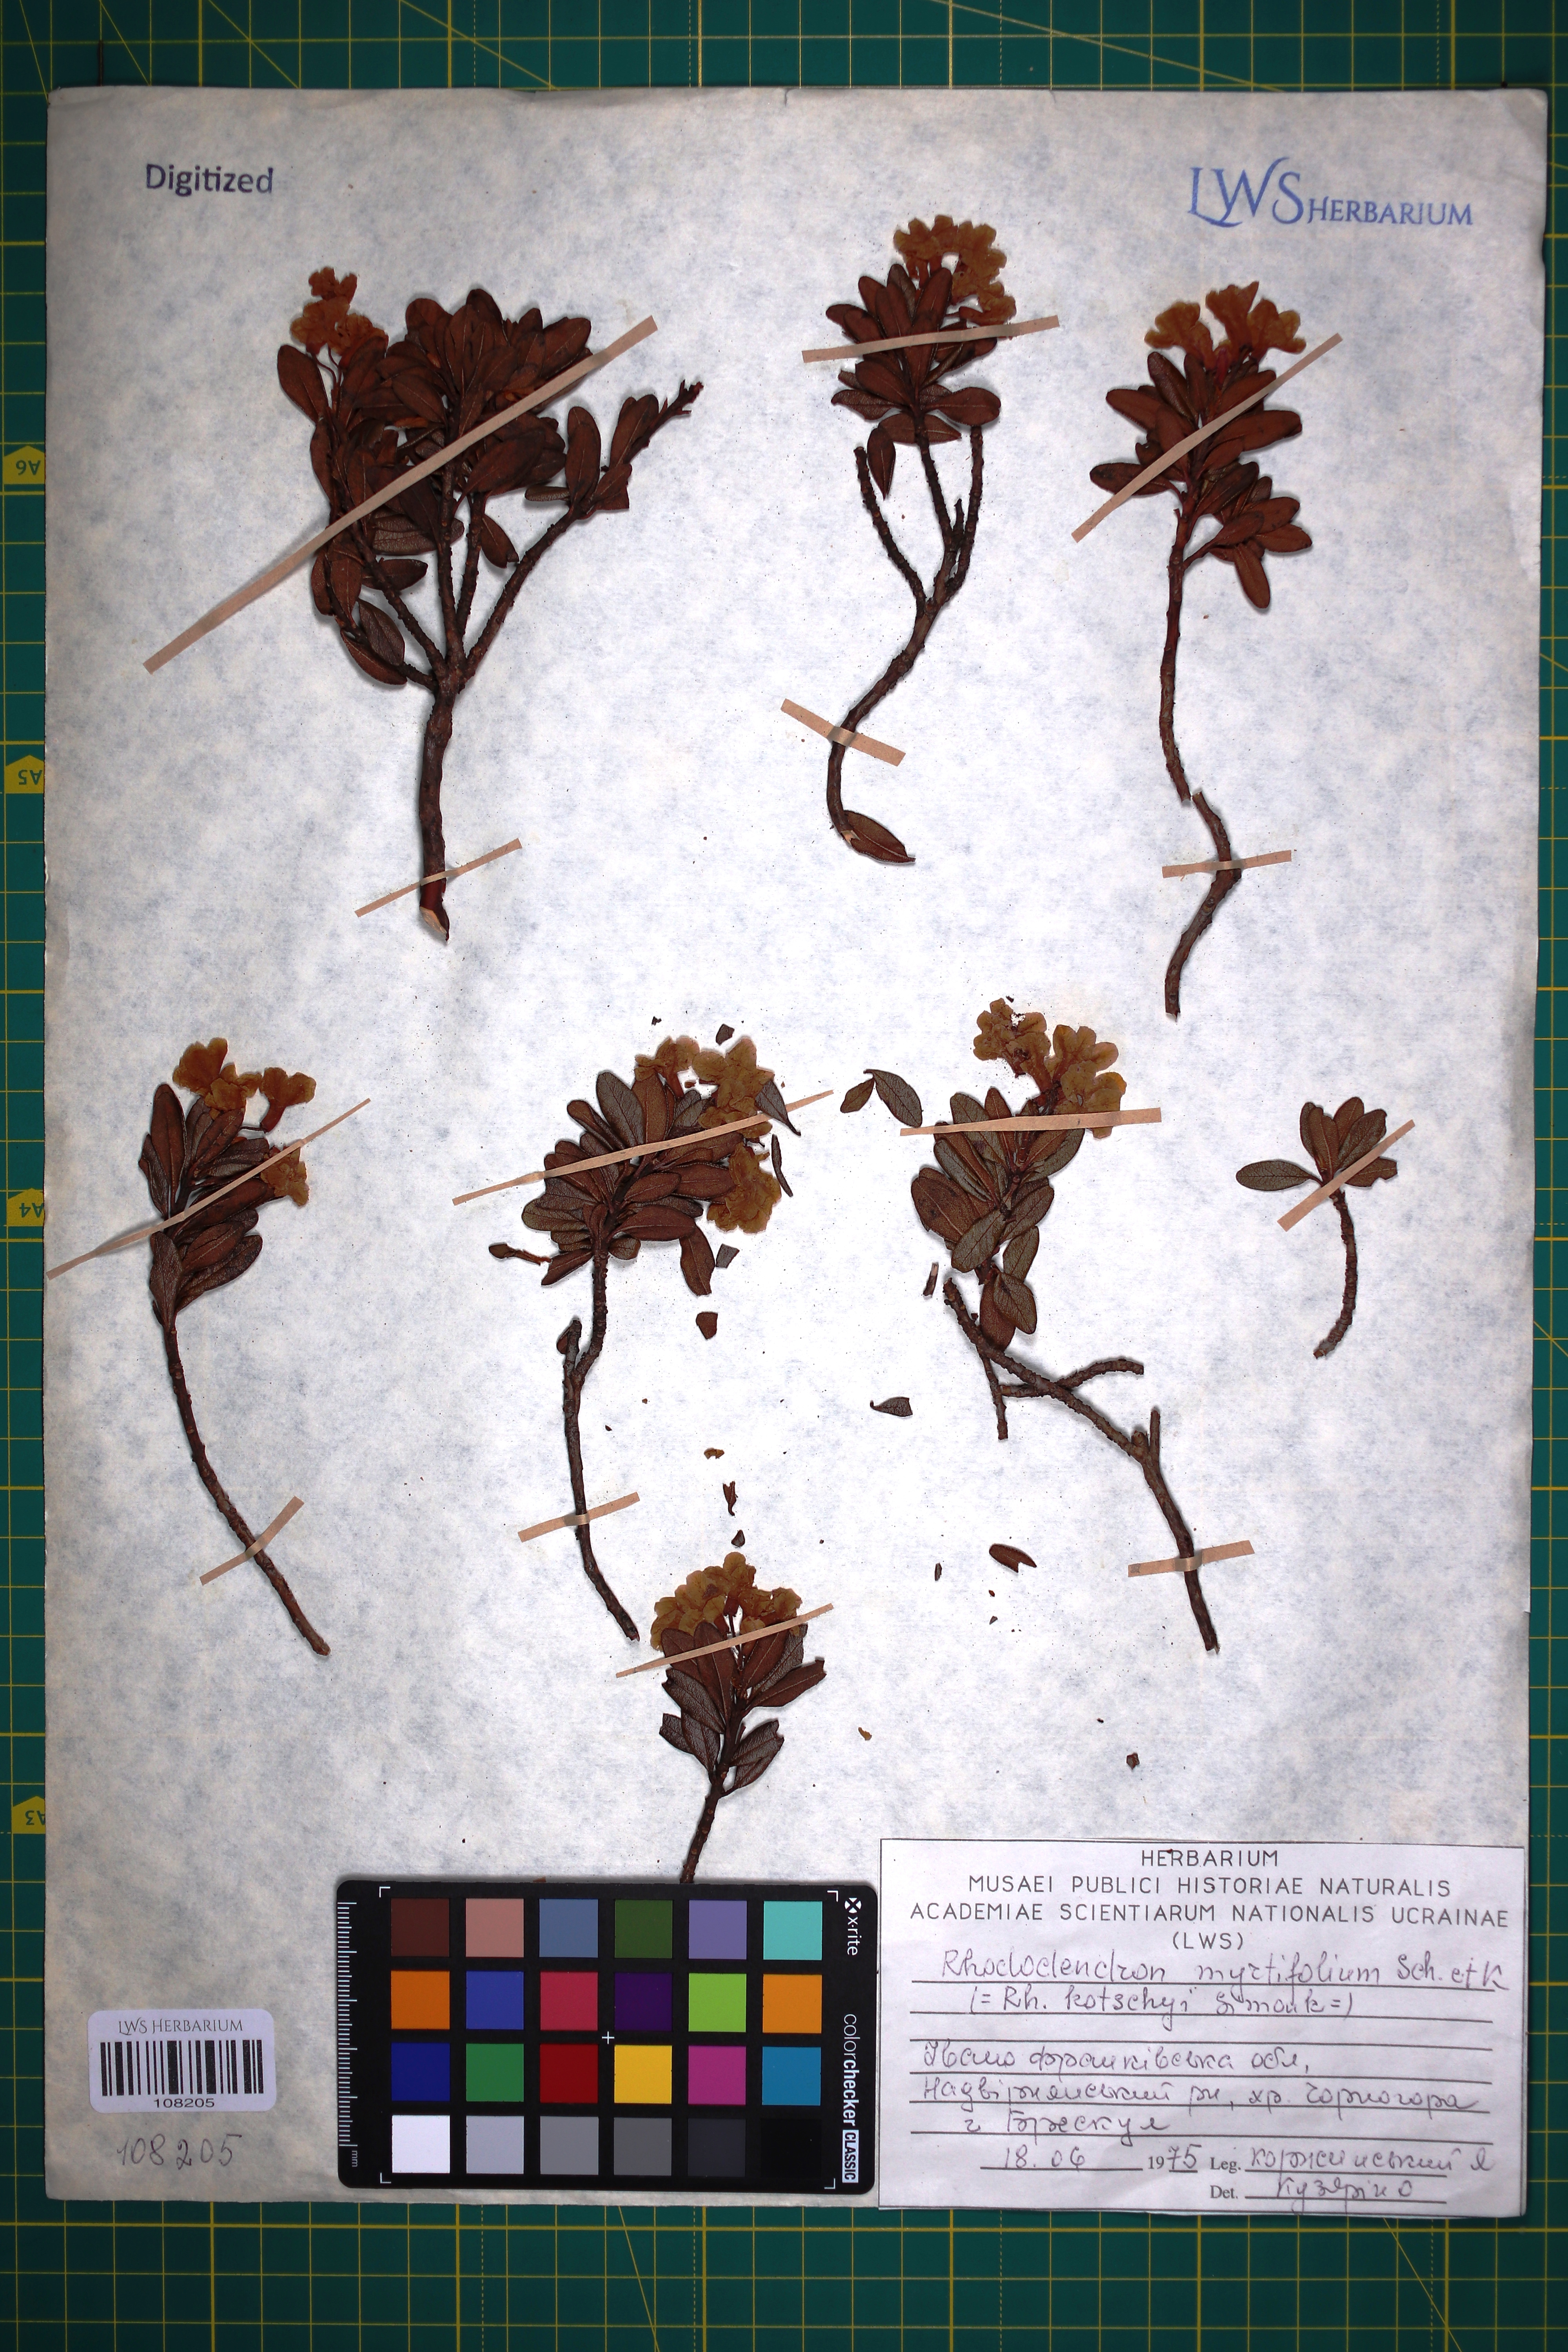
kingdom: Plantae
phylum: Tracheophyta
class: Magnoliopsida
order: Ericales
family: Ericaceae
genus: Rhododendron
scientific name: Rhododendron kotschyi
